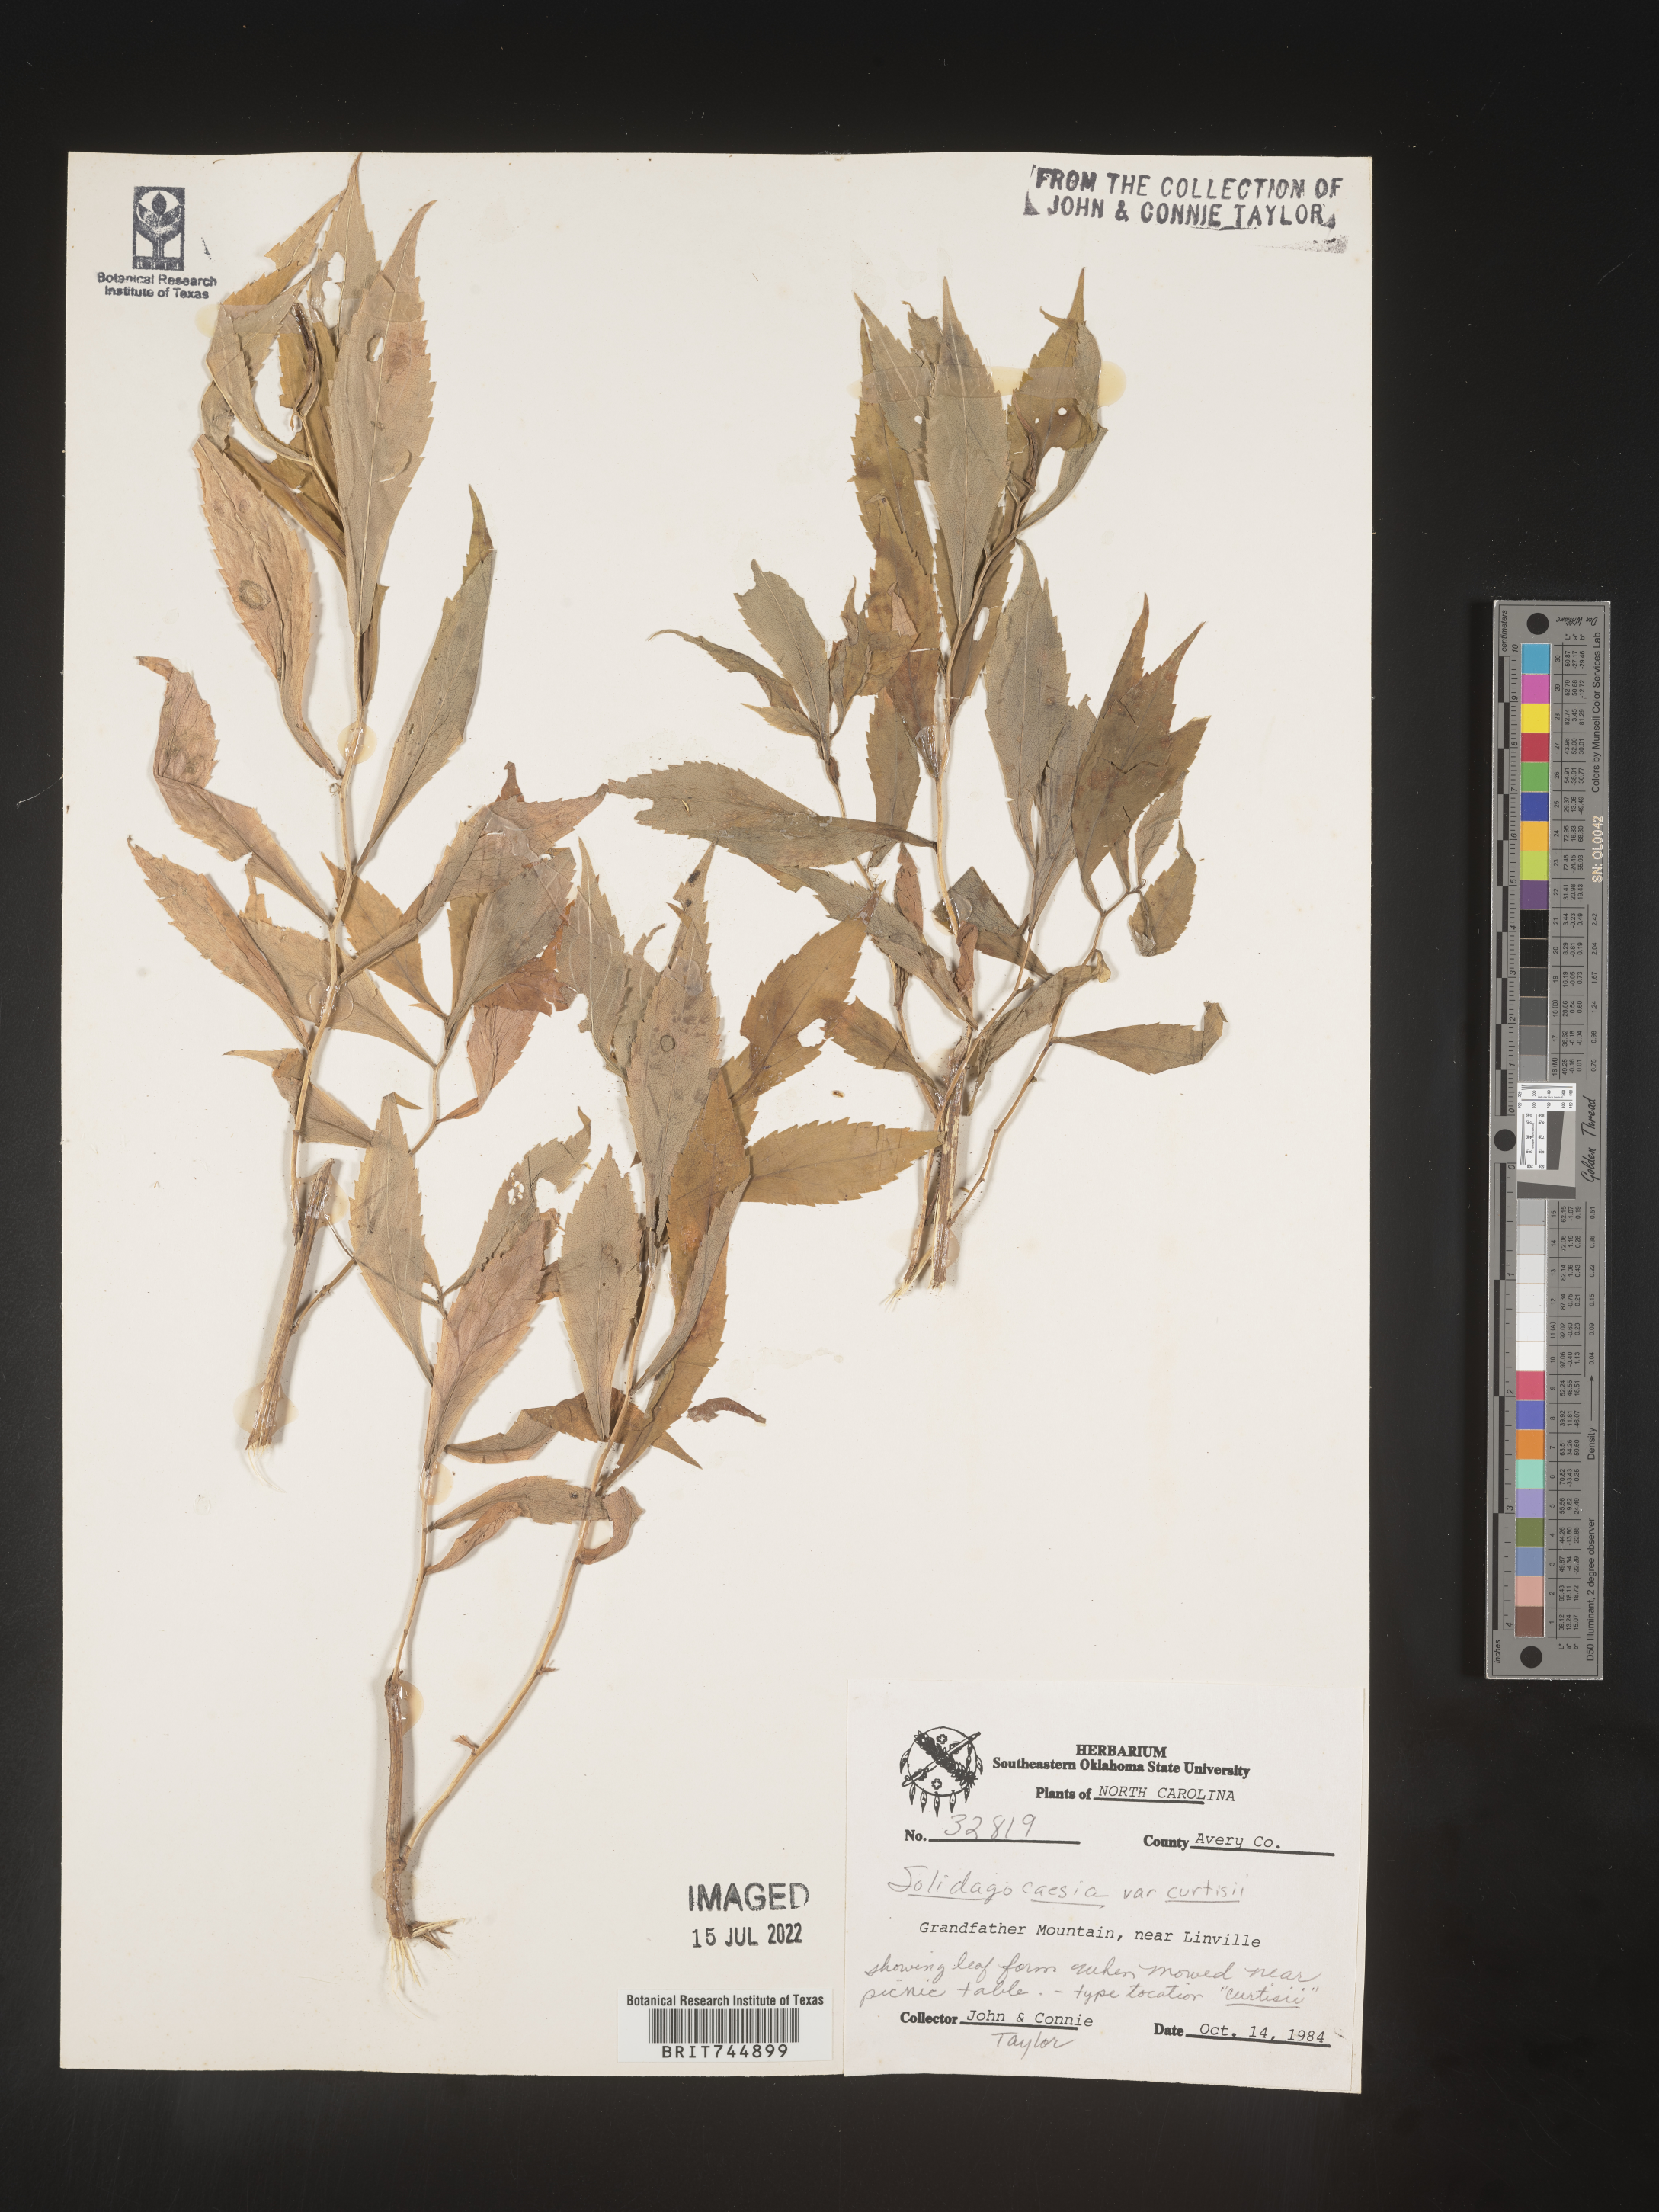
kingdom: Plantae
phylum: Tracheophyta
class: Magnoliopsida
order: Asterales
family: Asteraceae
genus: Solidago
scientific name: Solidago curtisii
